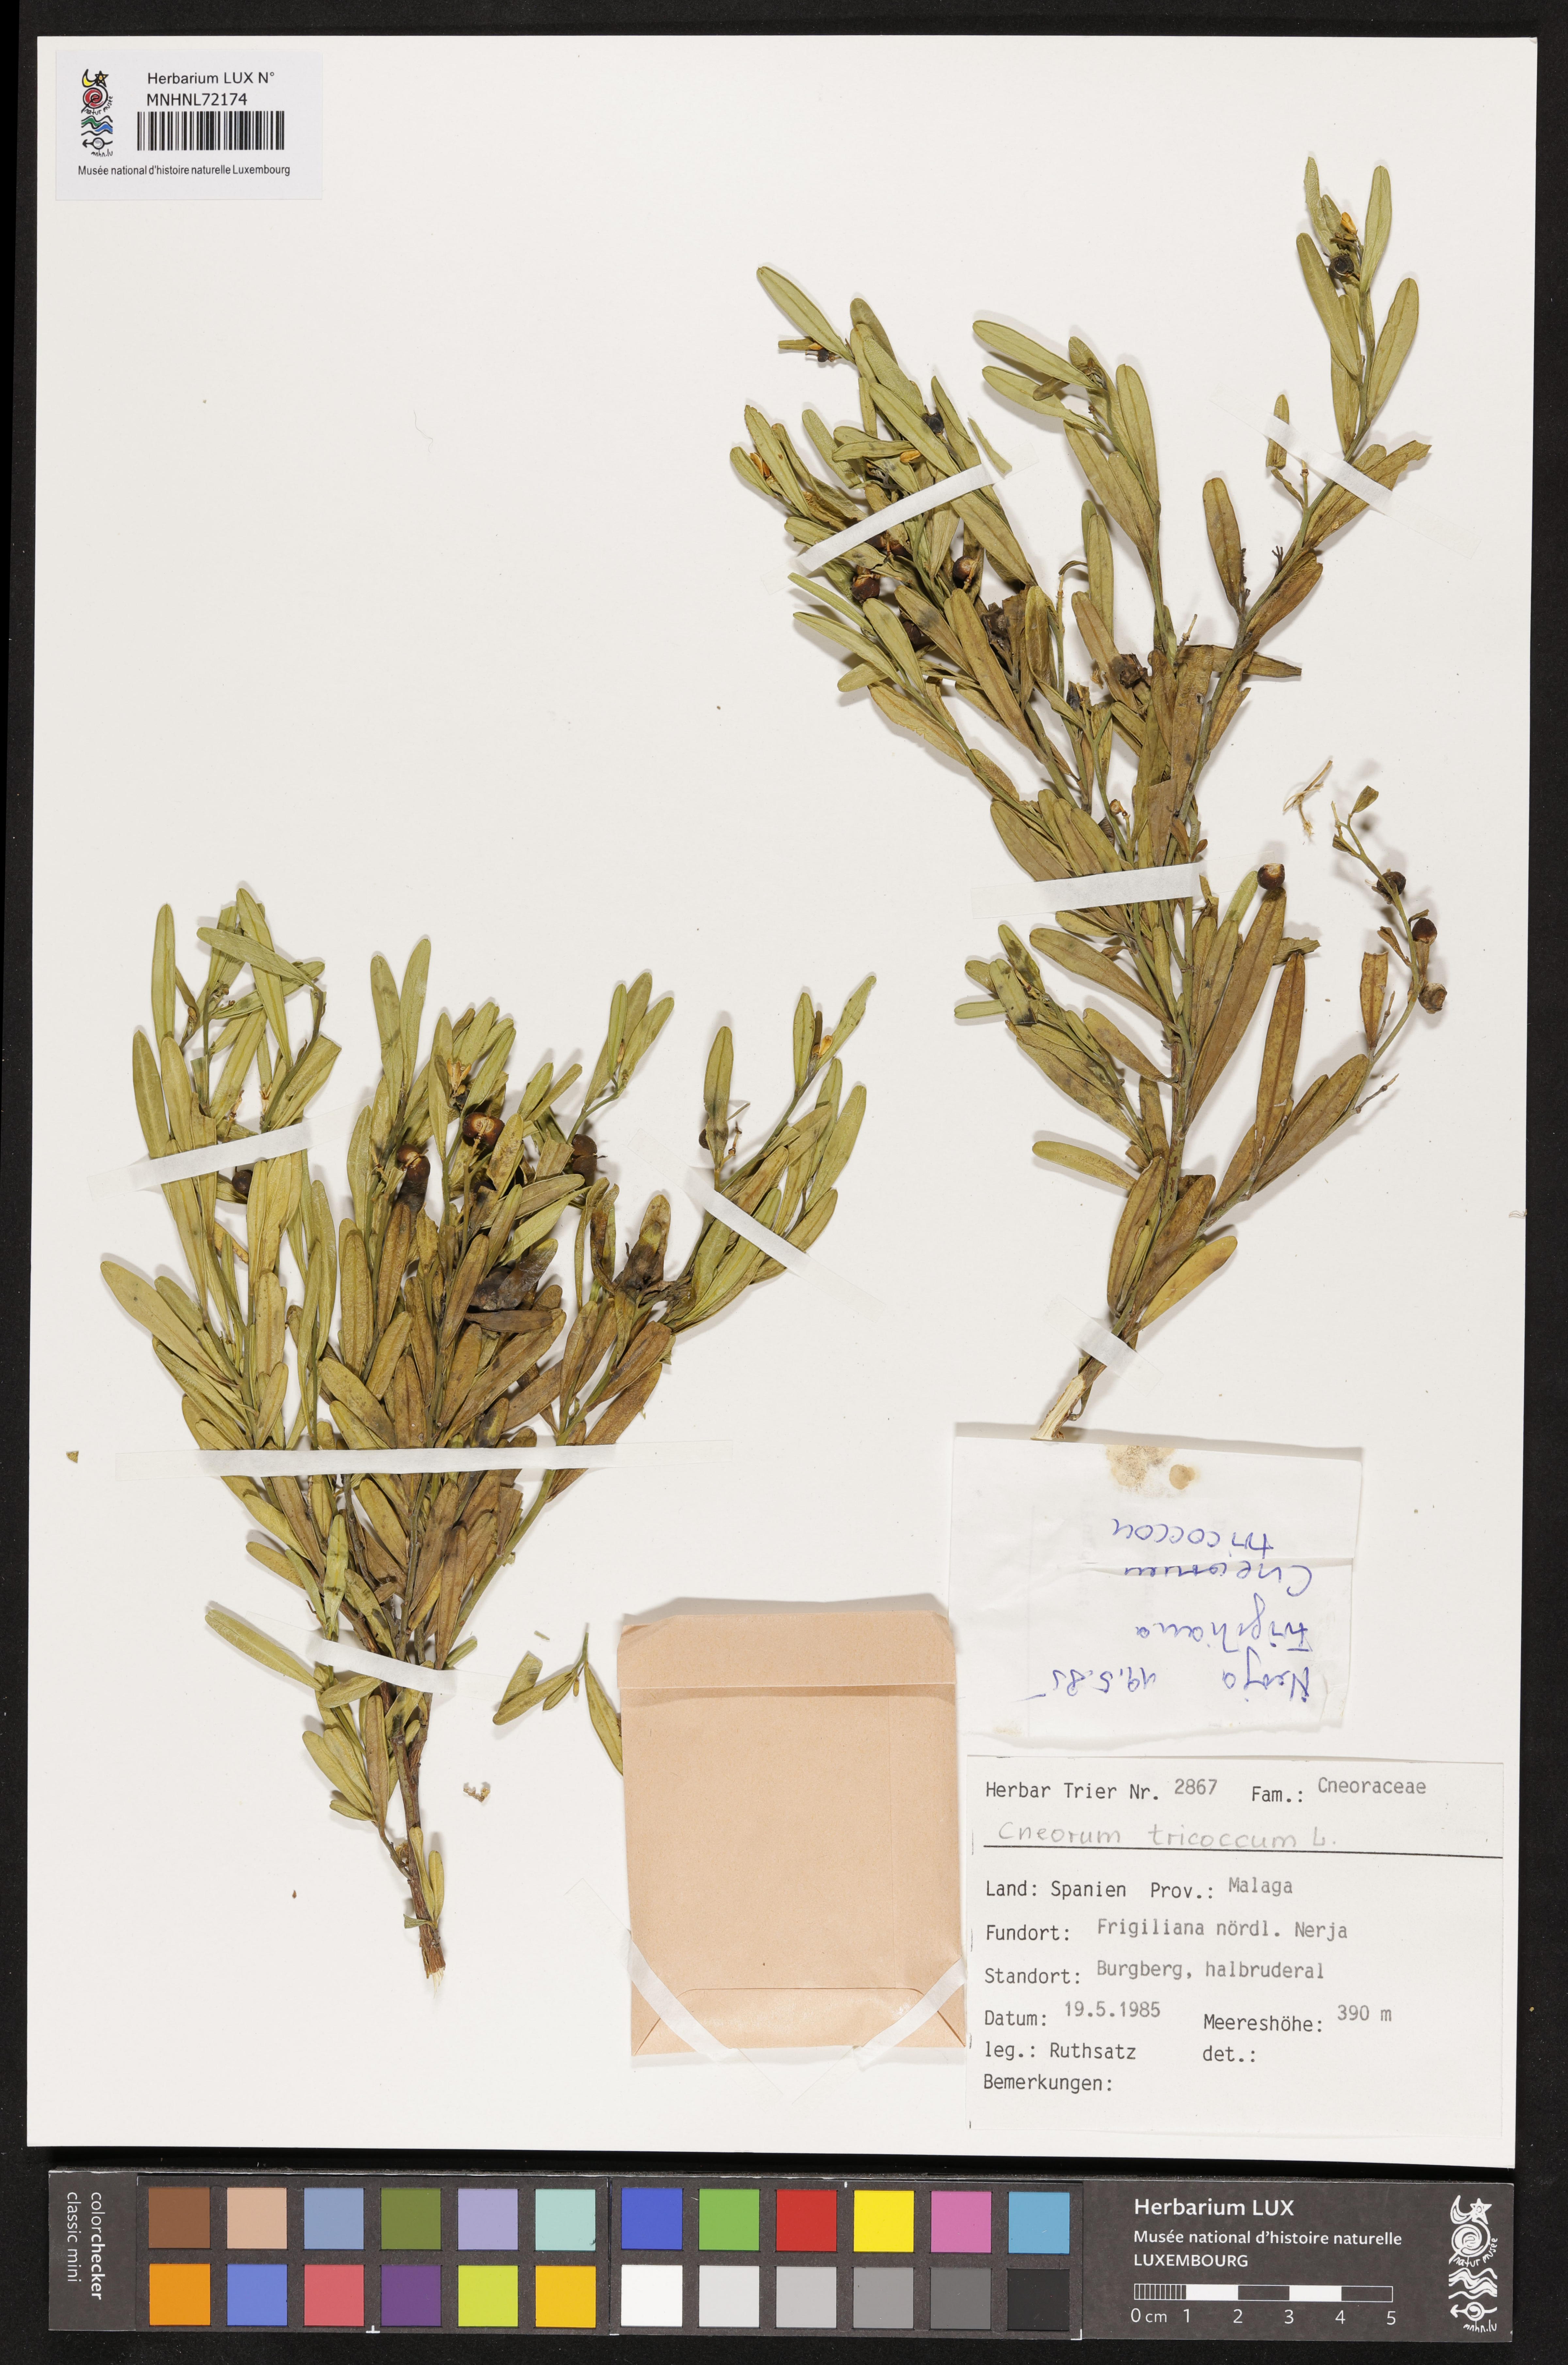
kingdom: Plantae
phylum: Tracheophyta
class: Magnoliopsida
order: Sapindales
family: Rutaceae
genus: Cneorum
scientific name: Cneorum tricoccon
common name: Spurge olive
